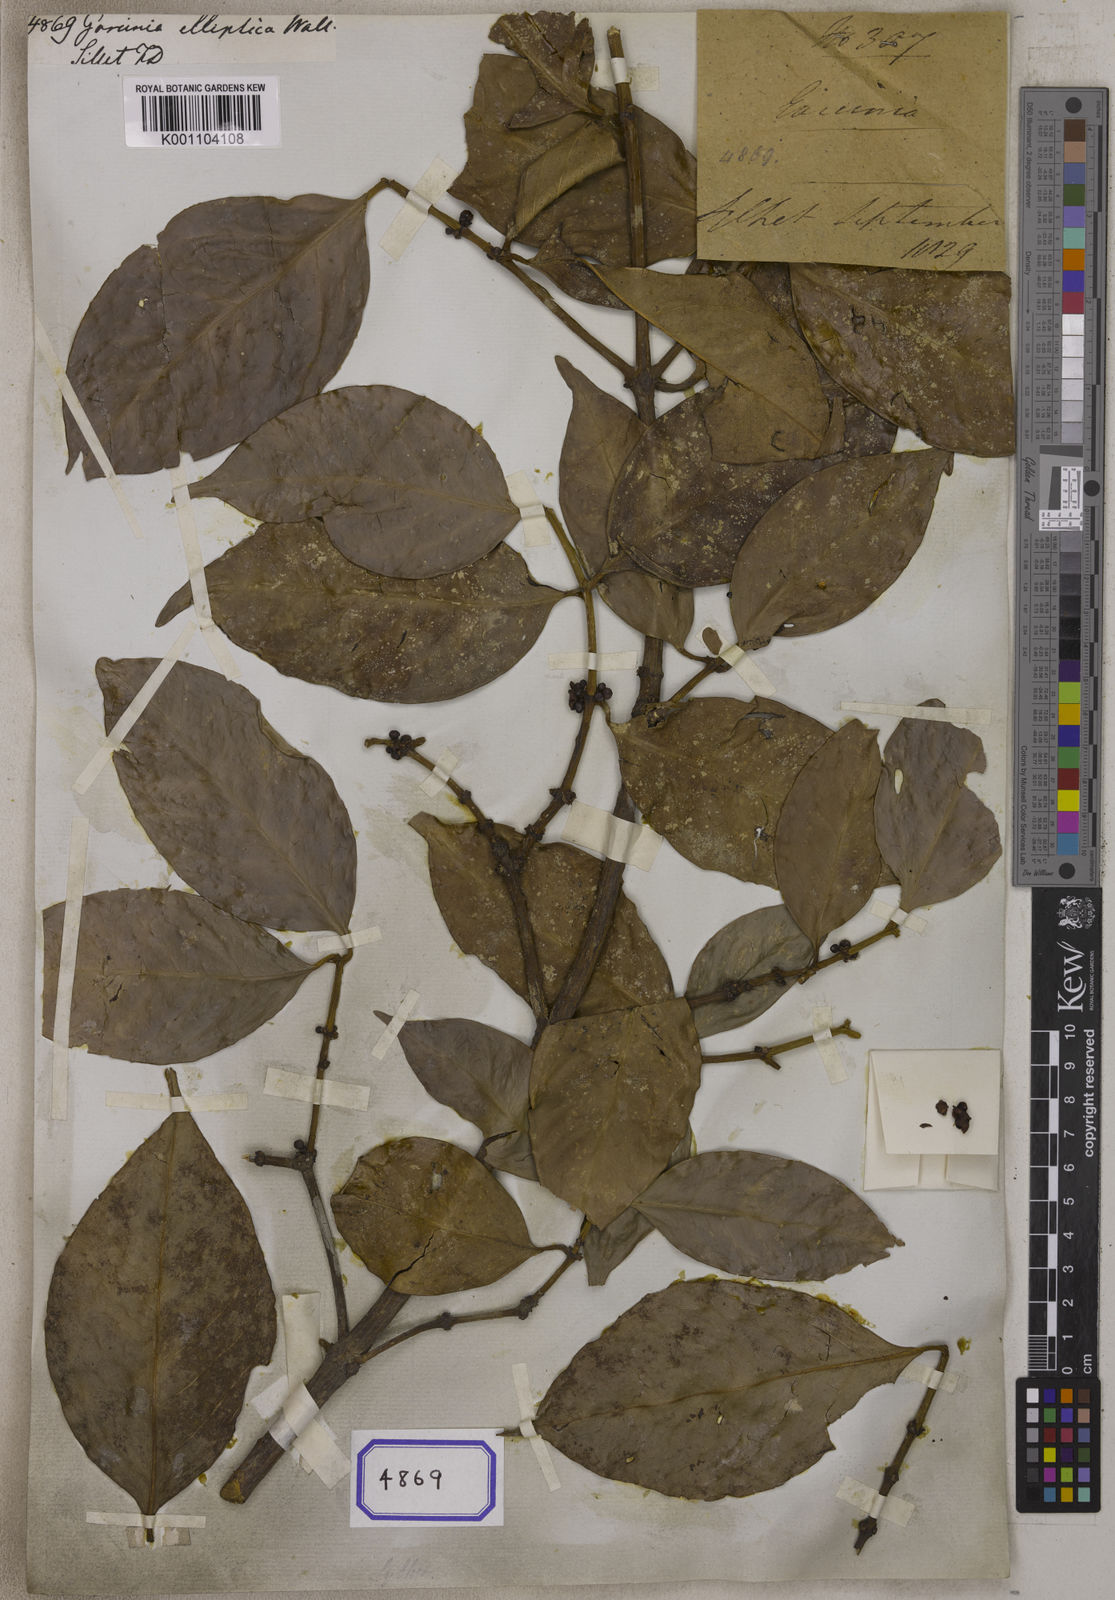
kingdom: Plantae
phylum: Tracheophyta
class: Magnoliopsida
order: Malpighiales
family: Clusiaceae
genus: Garcinia
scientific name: Garcinia
